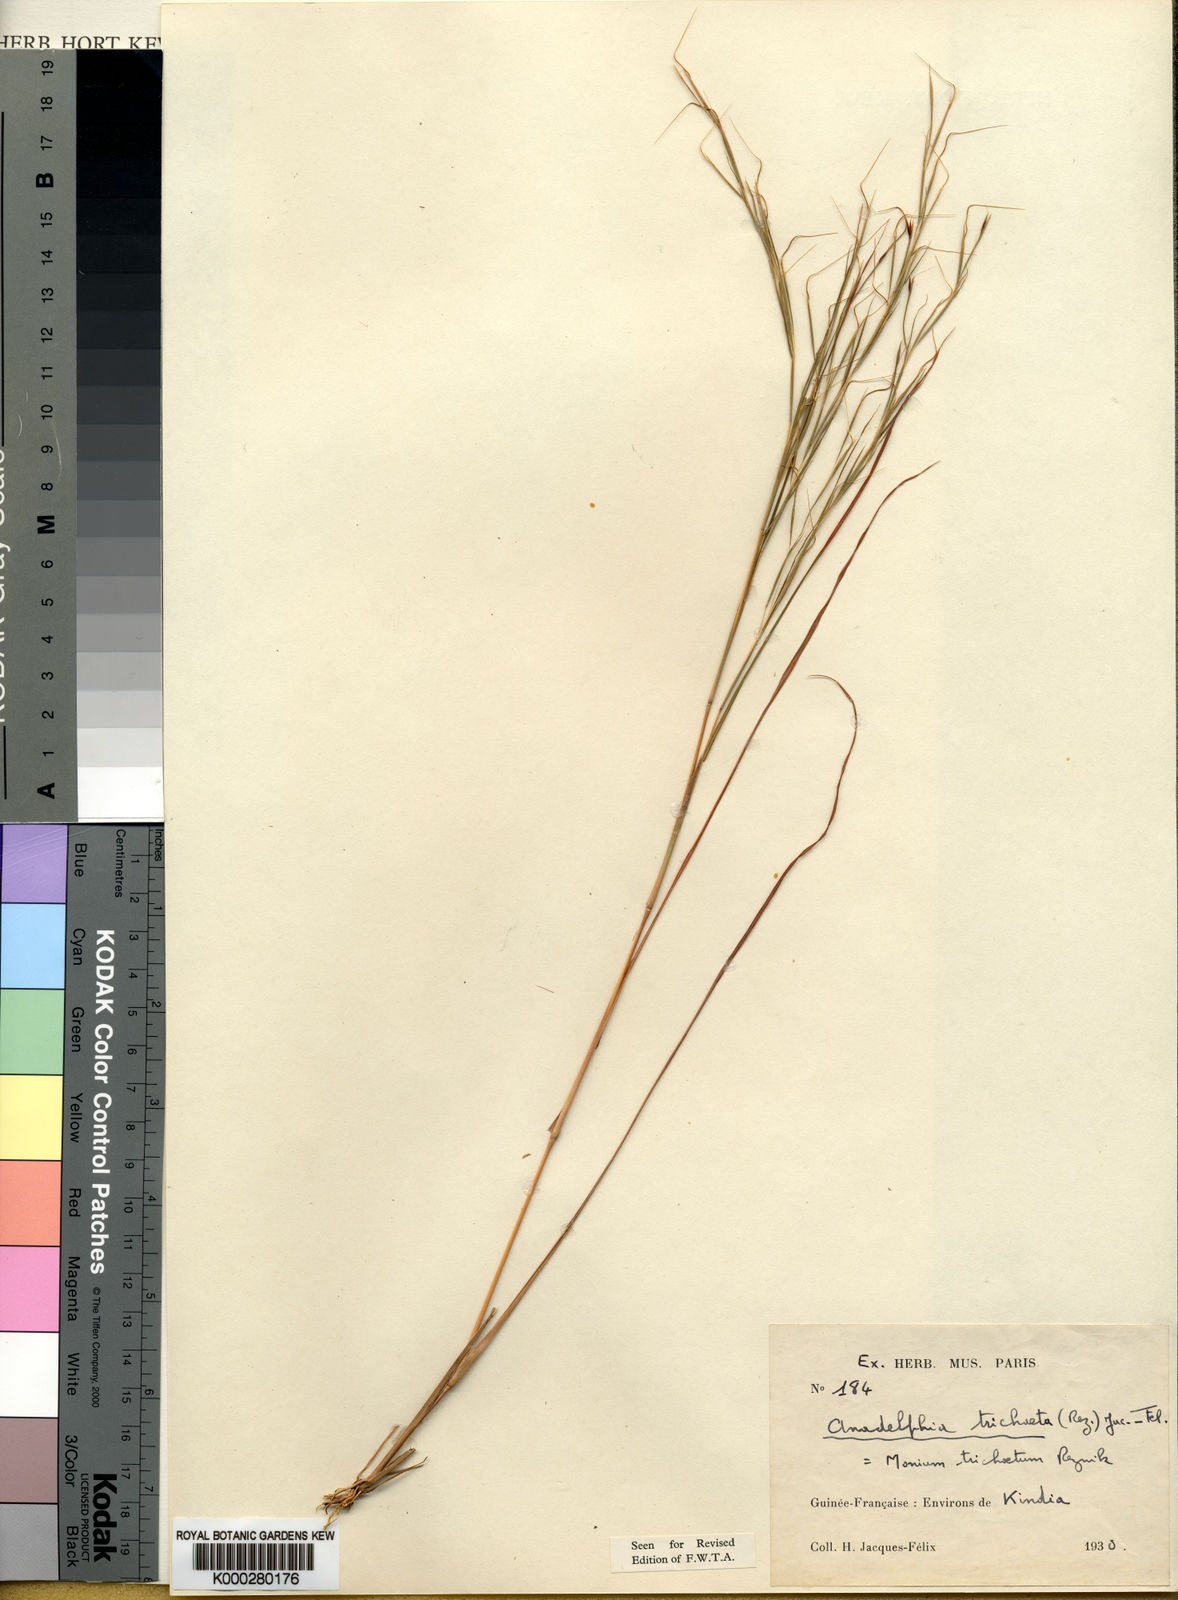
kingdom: Plantae
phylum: Tracheophyta
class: Liliopsida
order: Poales
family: Poaceae
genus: Anadelphia
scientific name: Anadelphia trichaeta
